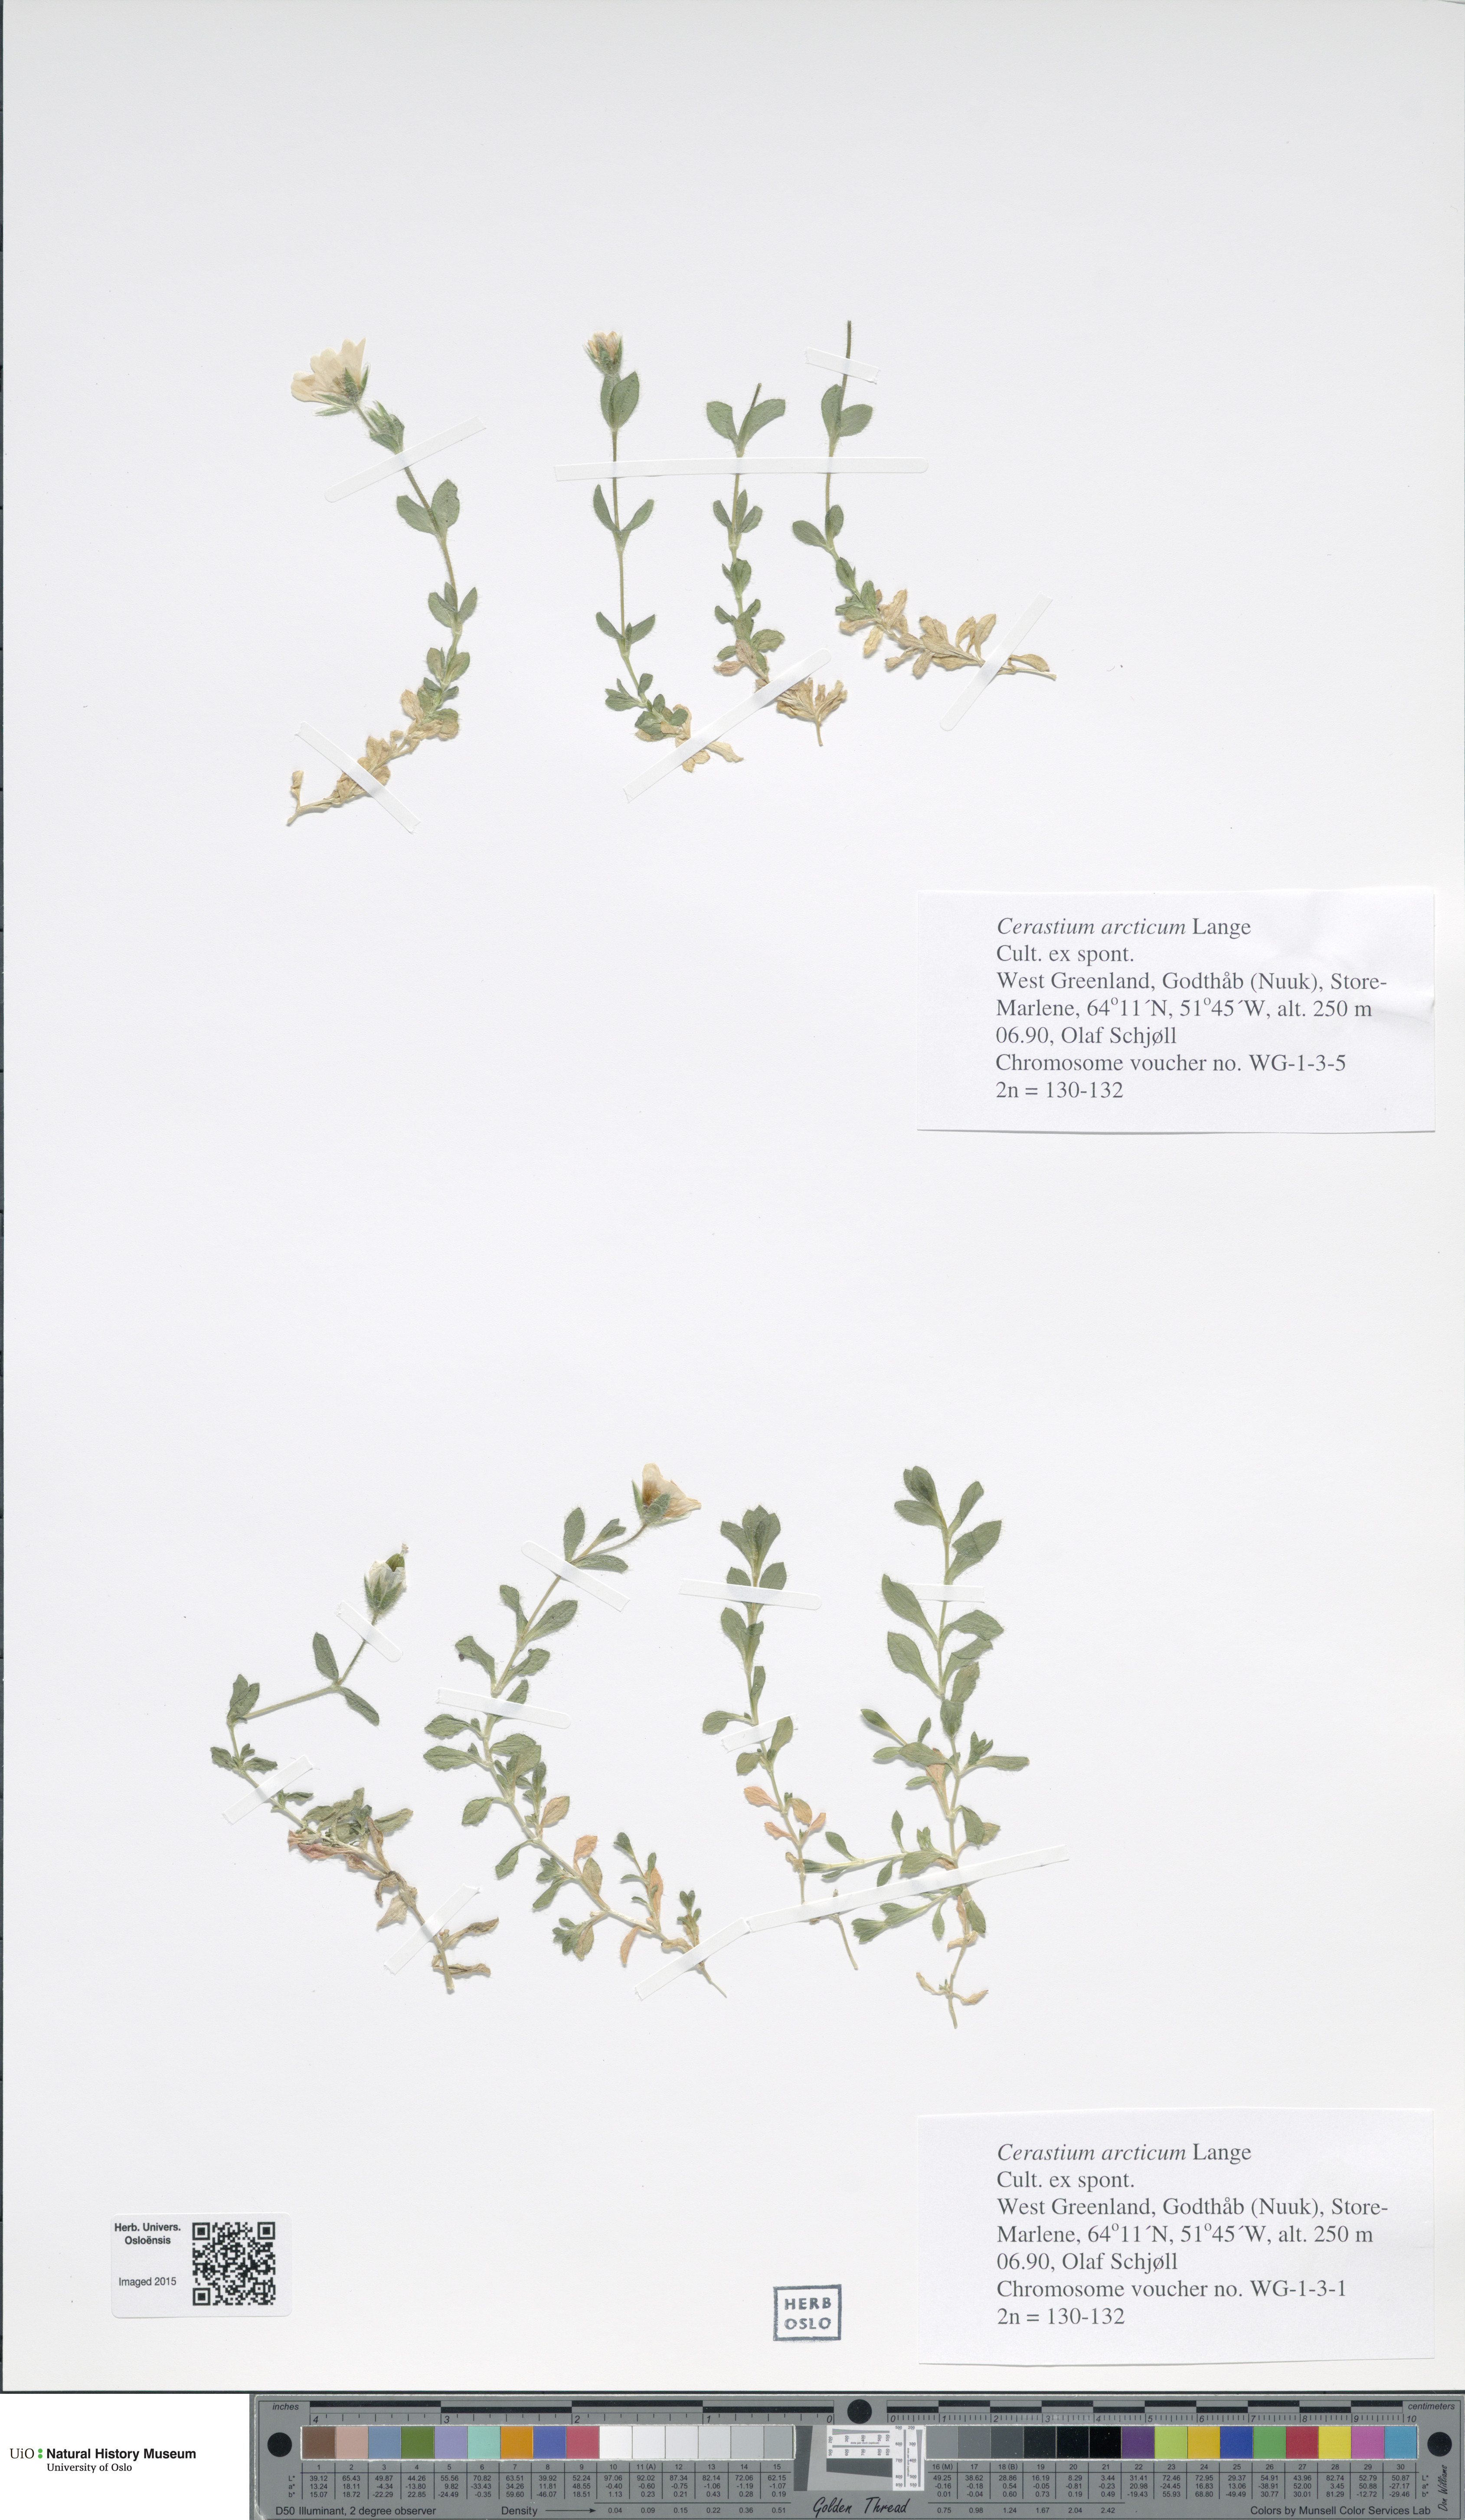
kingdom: Plantae
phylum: Tracheophyta
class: Magnoliopsida
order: Caryophyllales
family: Caryophyllaceae
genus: Cerastium
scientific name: Cerastium arcticum
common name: Arctic mouse-ear
